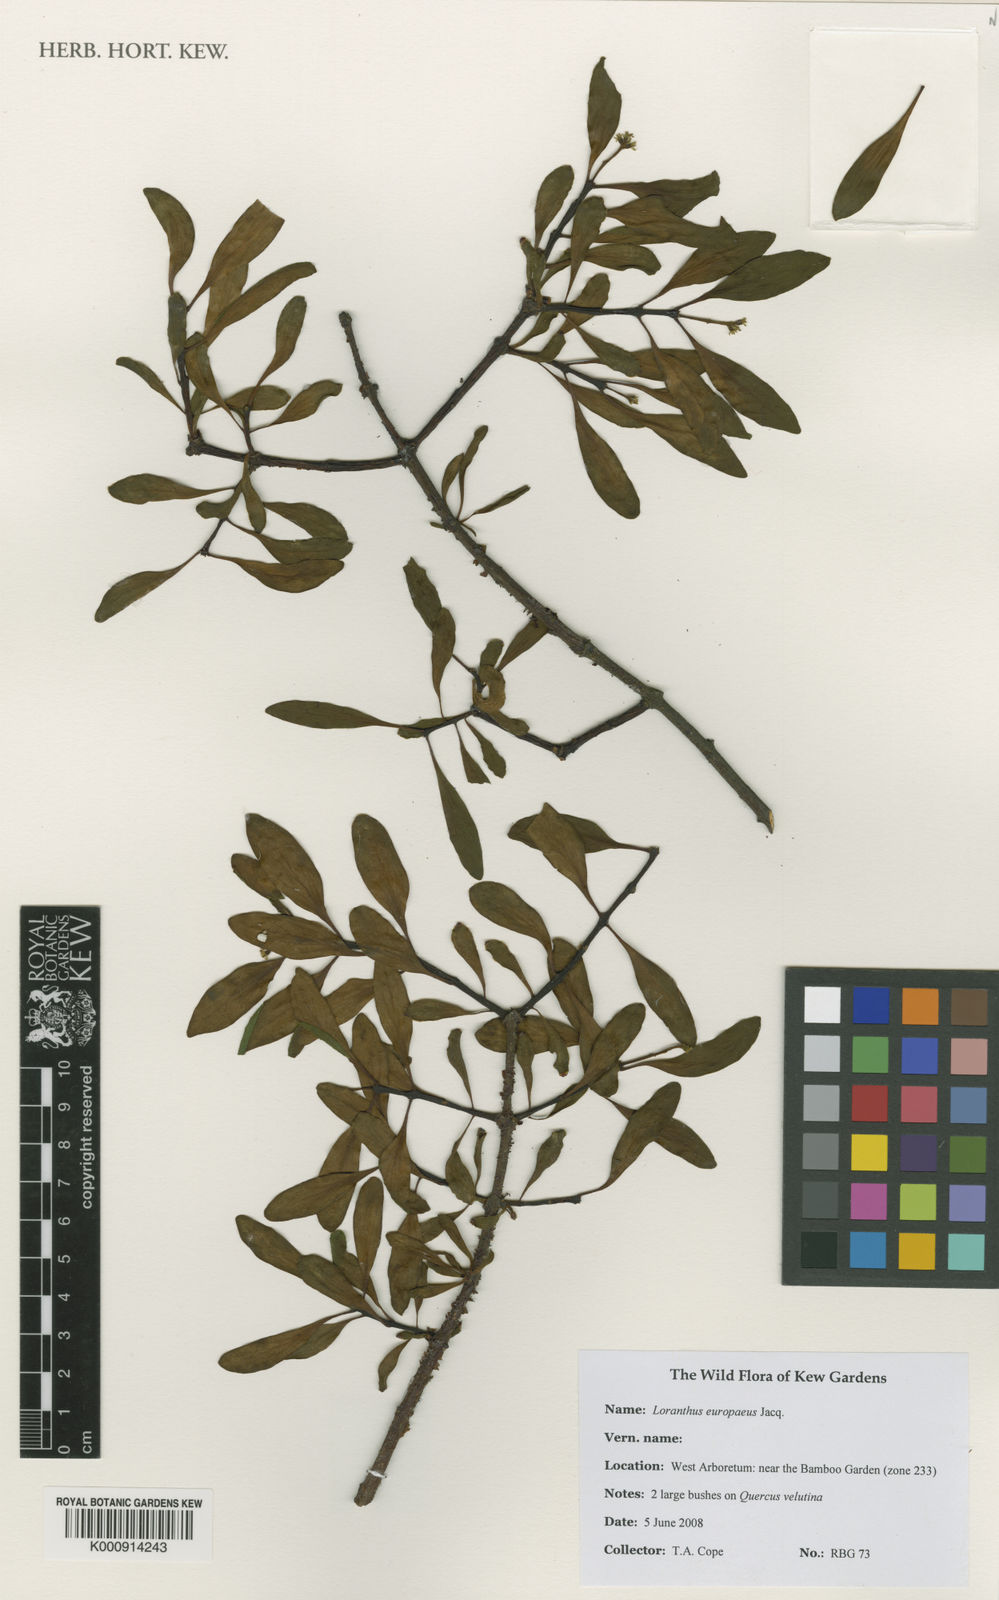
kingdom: Plantae
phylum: Tracheophyta
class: Magnoliopsida
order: Santalales
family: Loranthaceae
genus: Loranthus
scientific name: Loranthus europaeus
